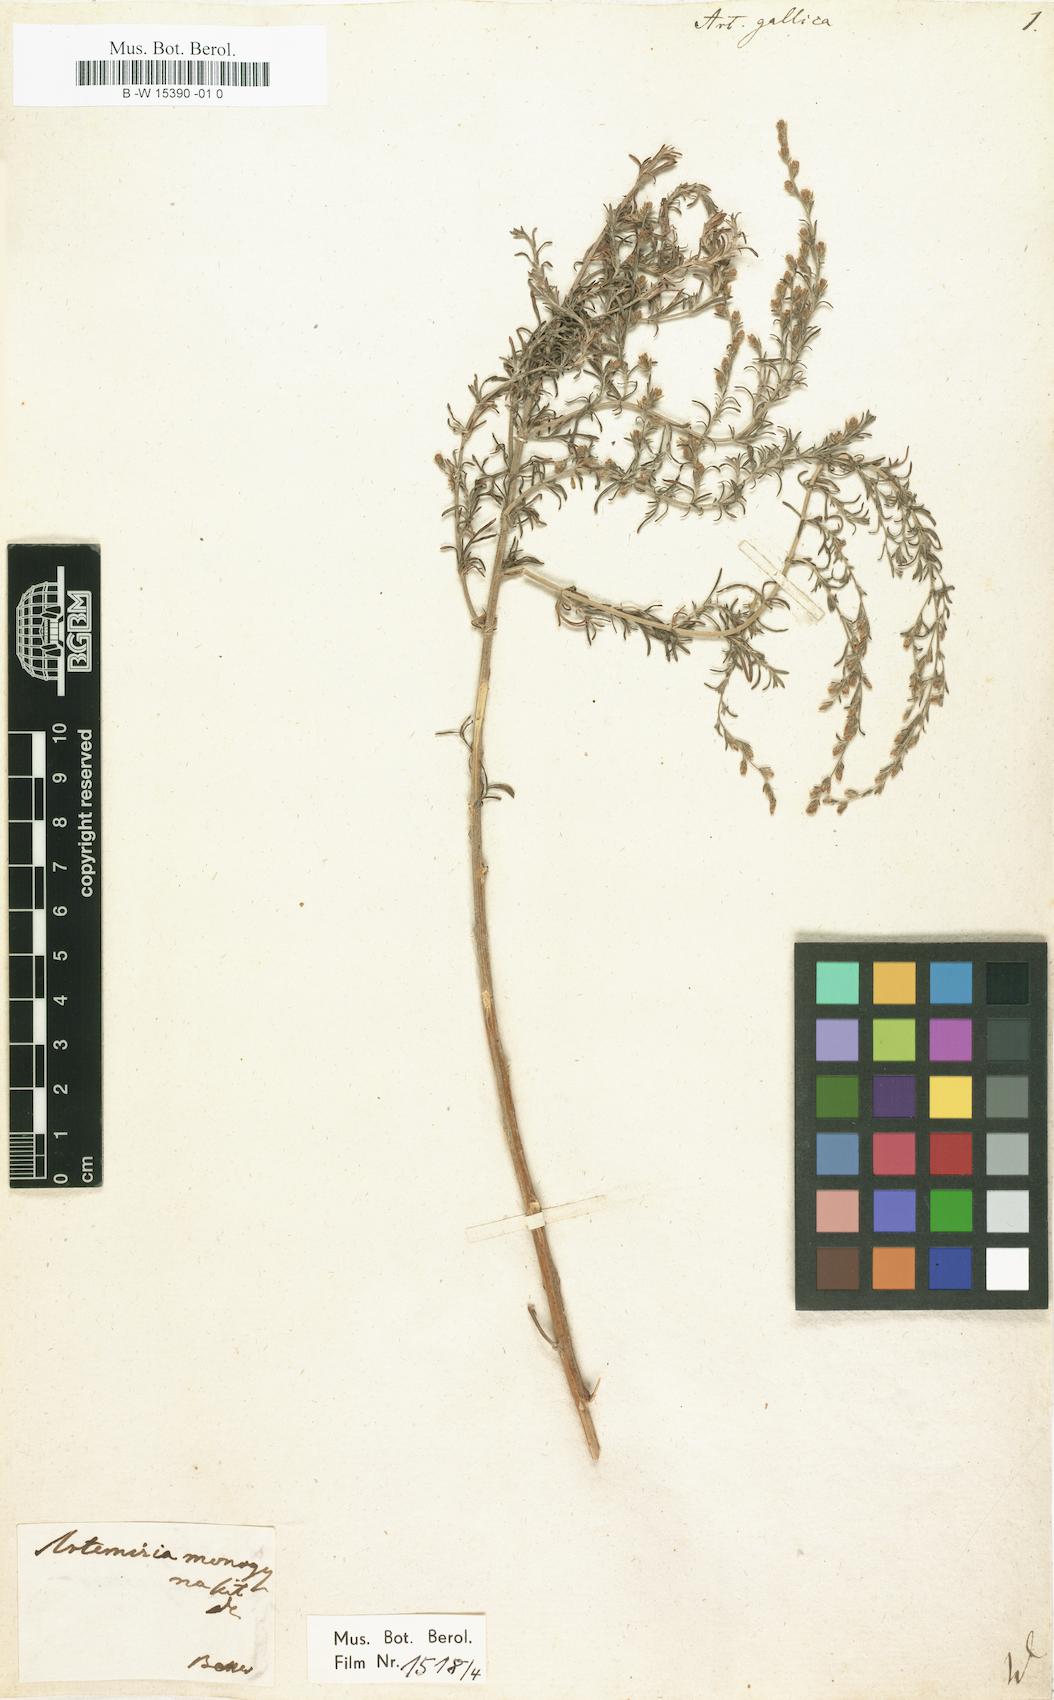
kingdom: Plantae
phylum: Tracheophyta
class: Magnoliopsida
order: Asterales
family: Asteraceae
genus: Artemisia
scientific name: Artemisia maritima
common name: Wormseed
